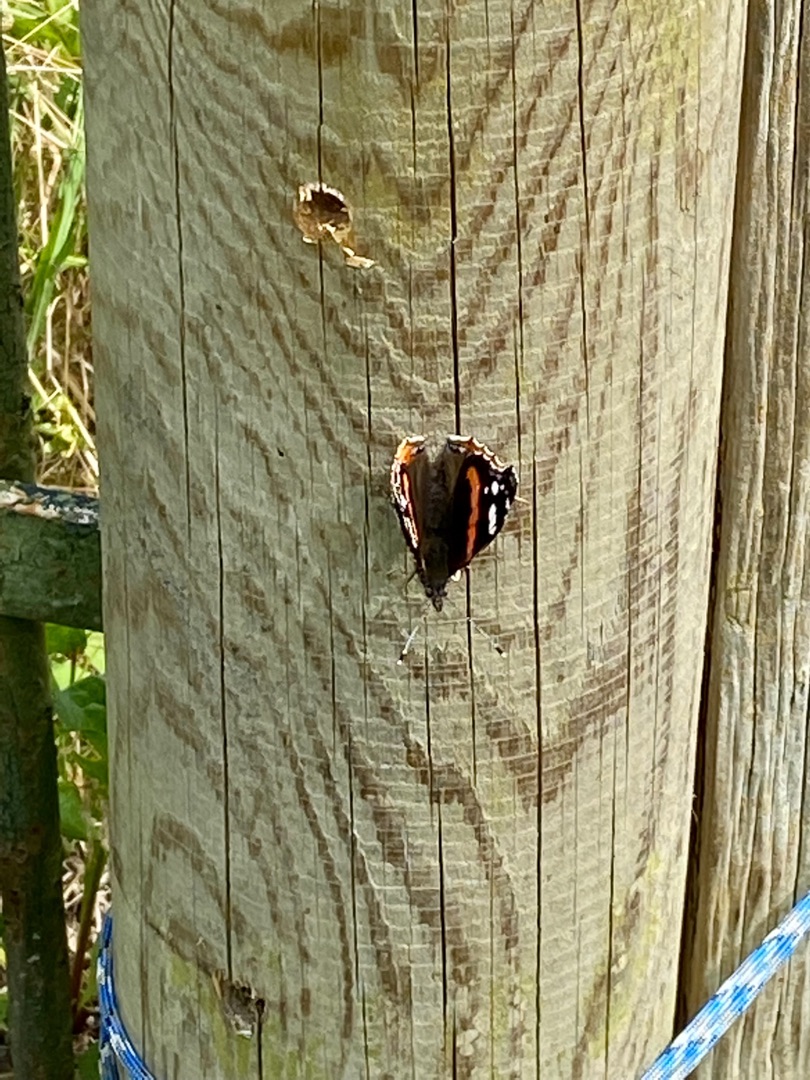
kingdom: Animalia
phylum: Arthropoda
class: Insecta
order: Lepidoptera
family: Nymphalidae
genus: Vanessa
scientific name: Vanessa atalanta
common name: Admiral
